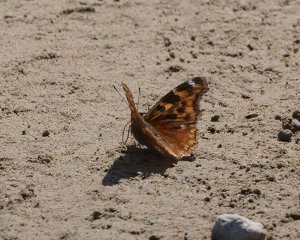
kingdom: Animalia
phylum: Arthropoda
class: Insecta
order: Lepidoptera
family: Nymphalidae
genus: Polygonia
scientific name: Polygonia vaualbum
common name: Compton Tortoiseshell
